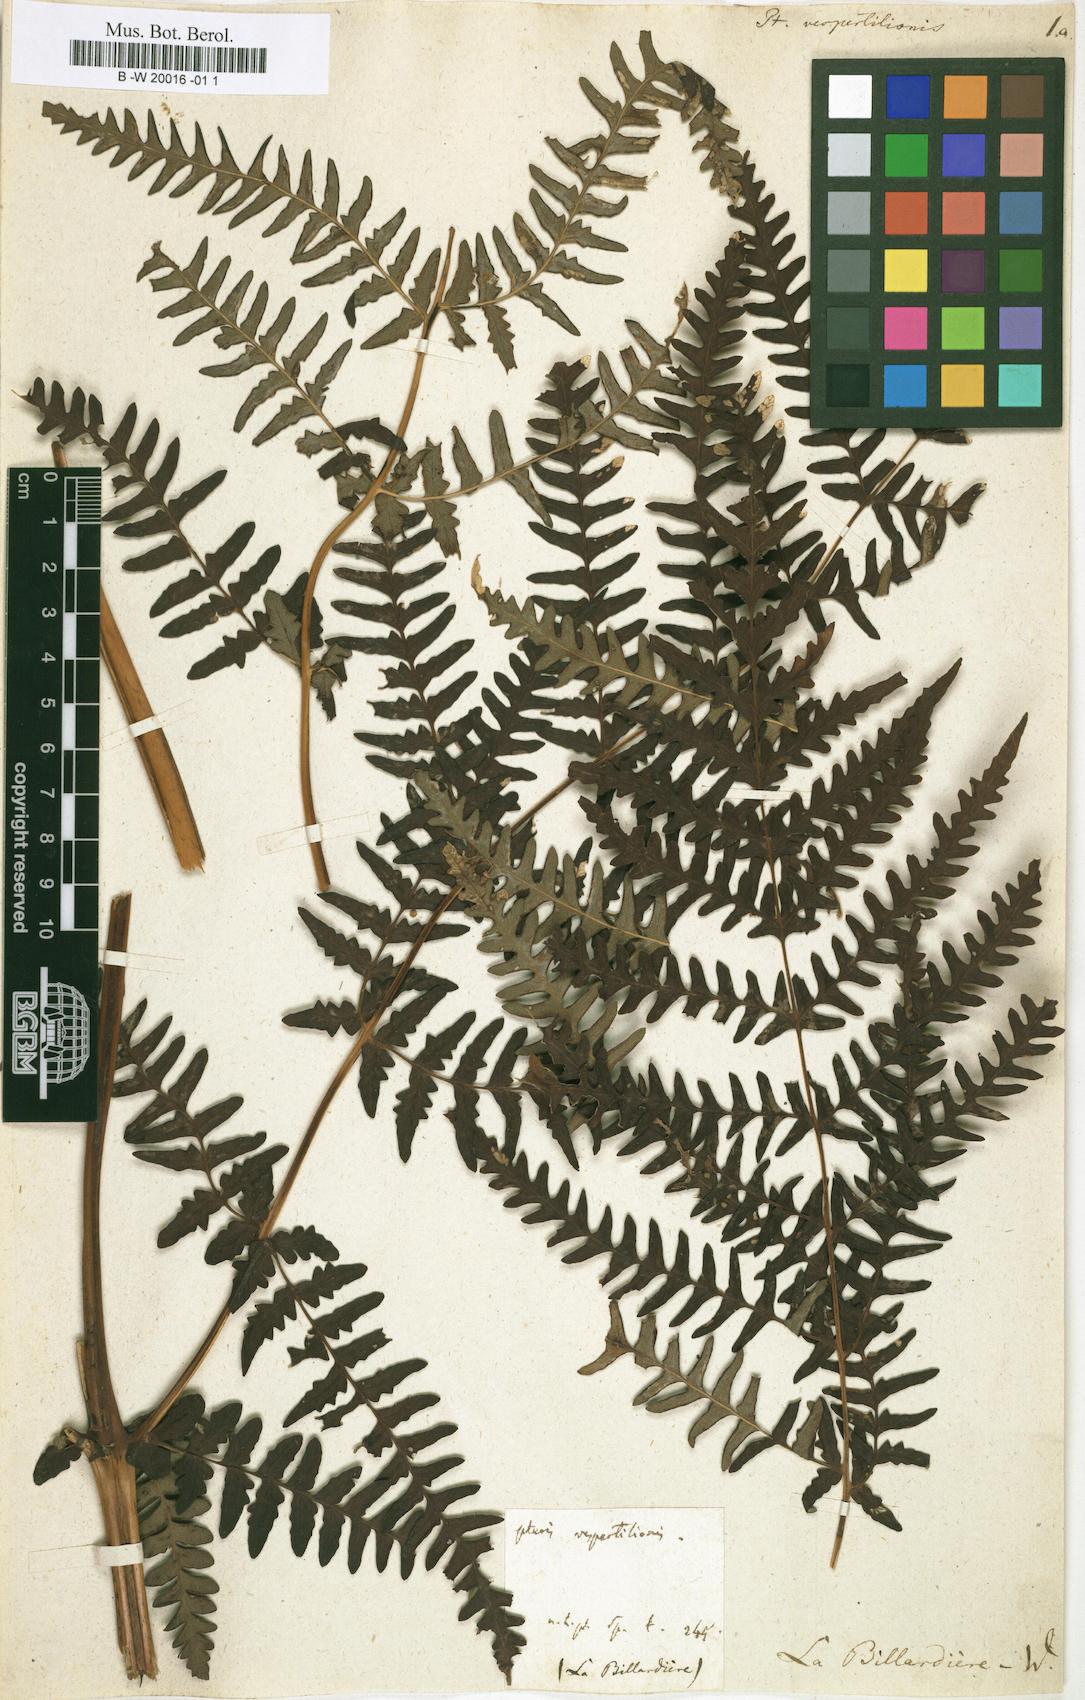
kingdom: Plantae
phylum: Tracheophyta
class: Polypodiopsida
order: Polypodiales
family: Dennstaedtiaceae
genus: Histiopteris
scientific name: Histiopteris incisa
